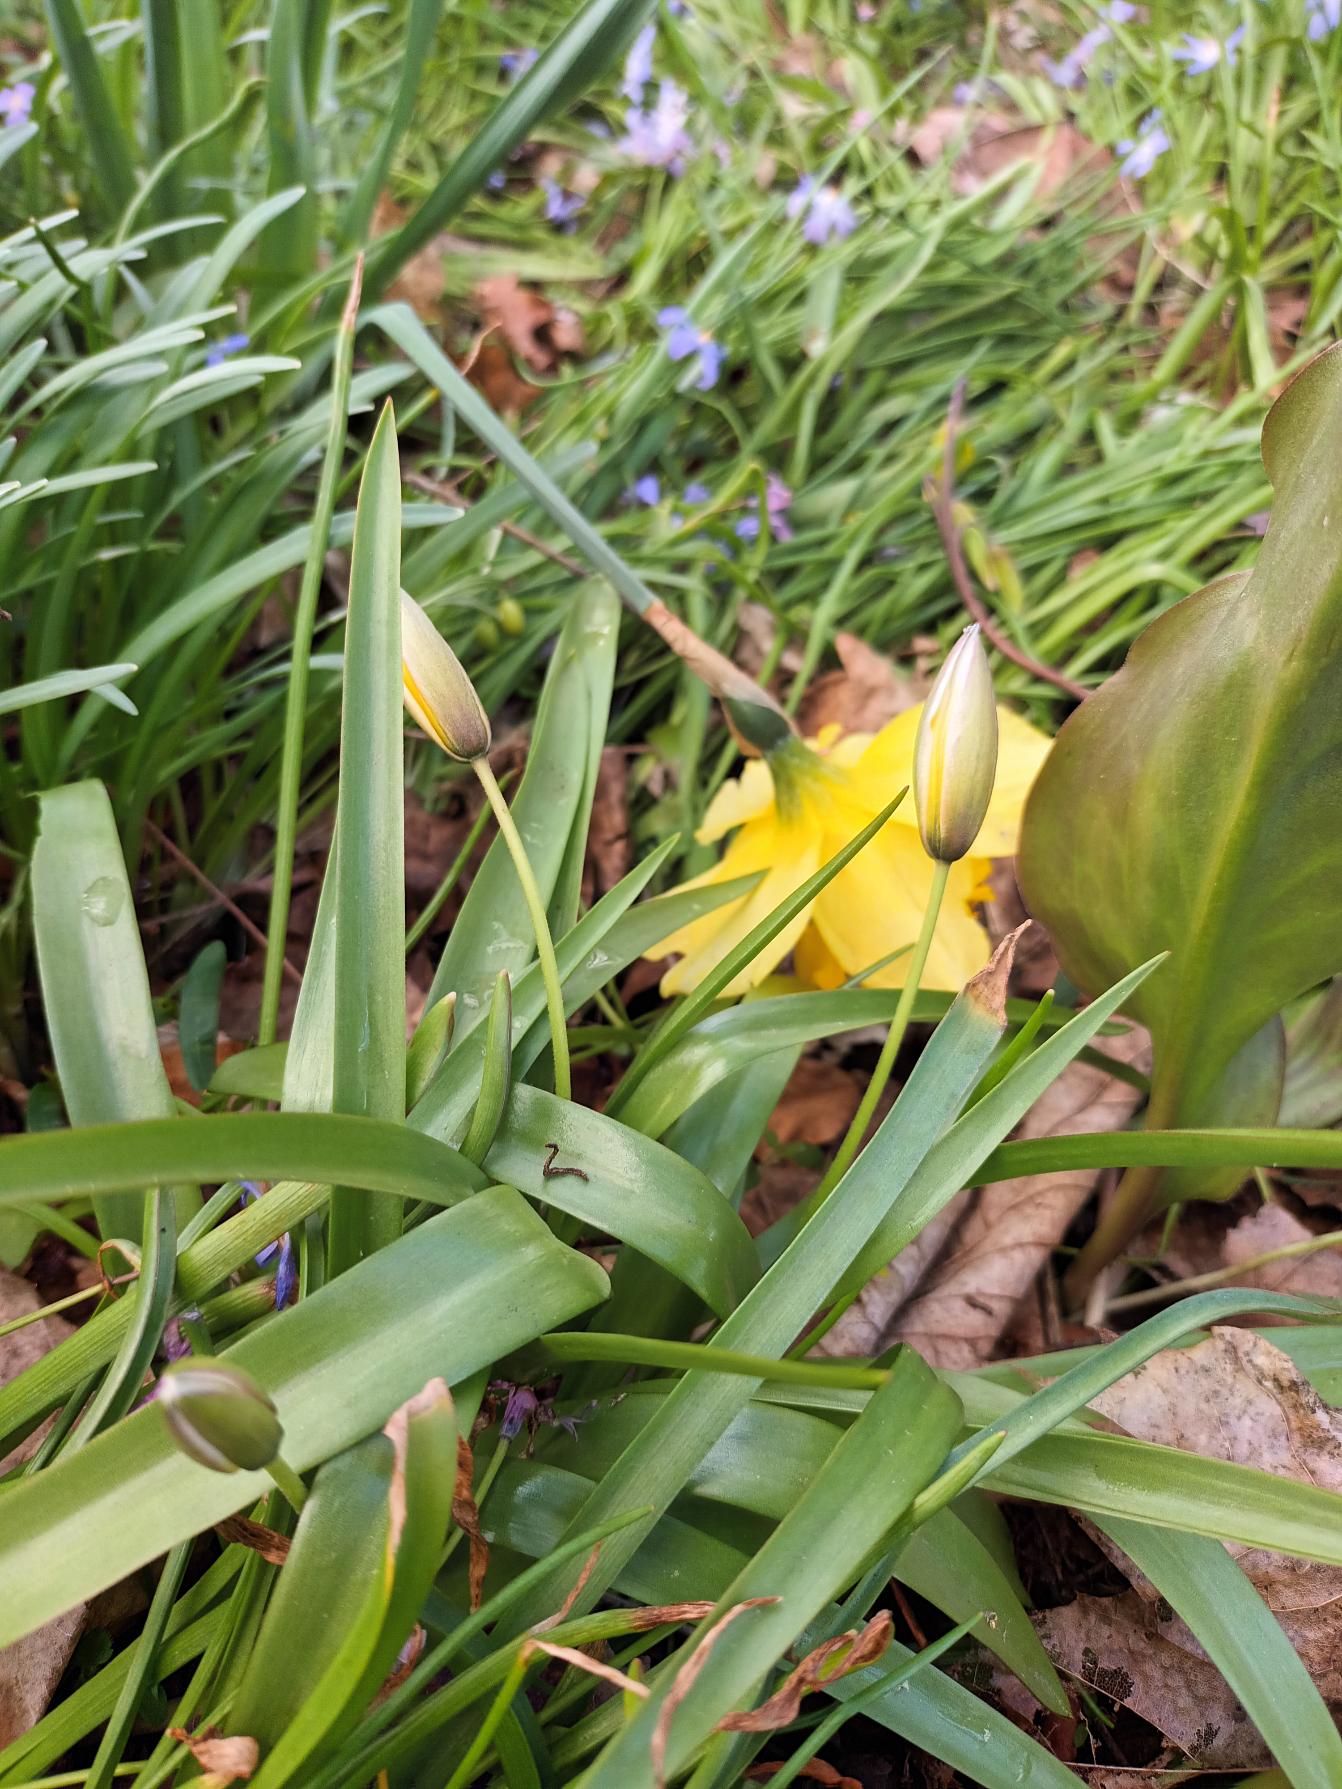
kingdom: Plantae
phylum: Tracheophyta
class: Liliopsida
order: Liliales
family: Liliaceae
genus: Tulipa
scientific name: Tulipa urumiensis
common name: Skærm-tulipan
